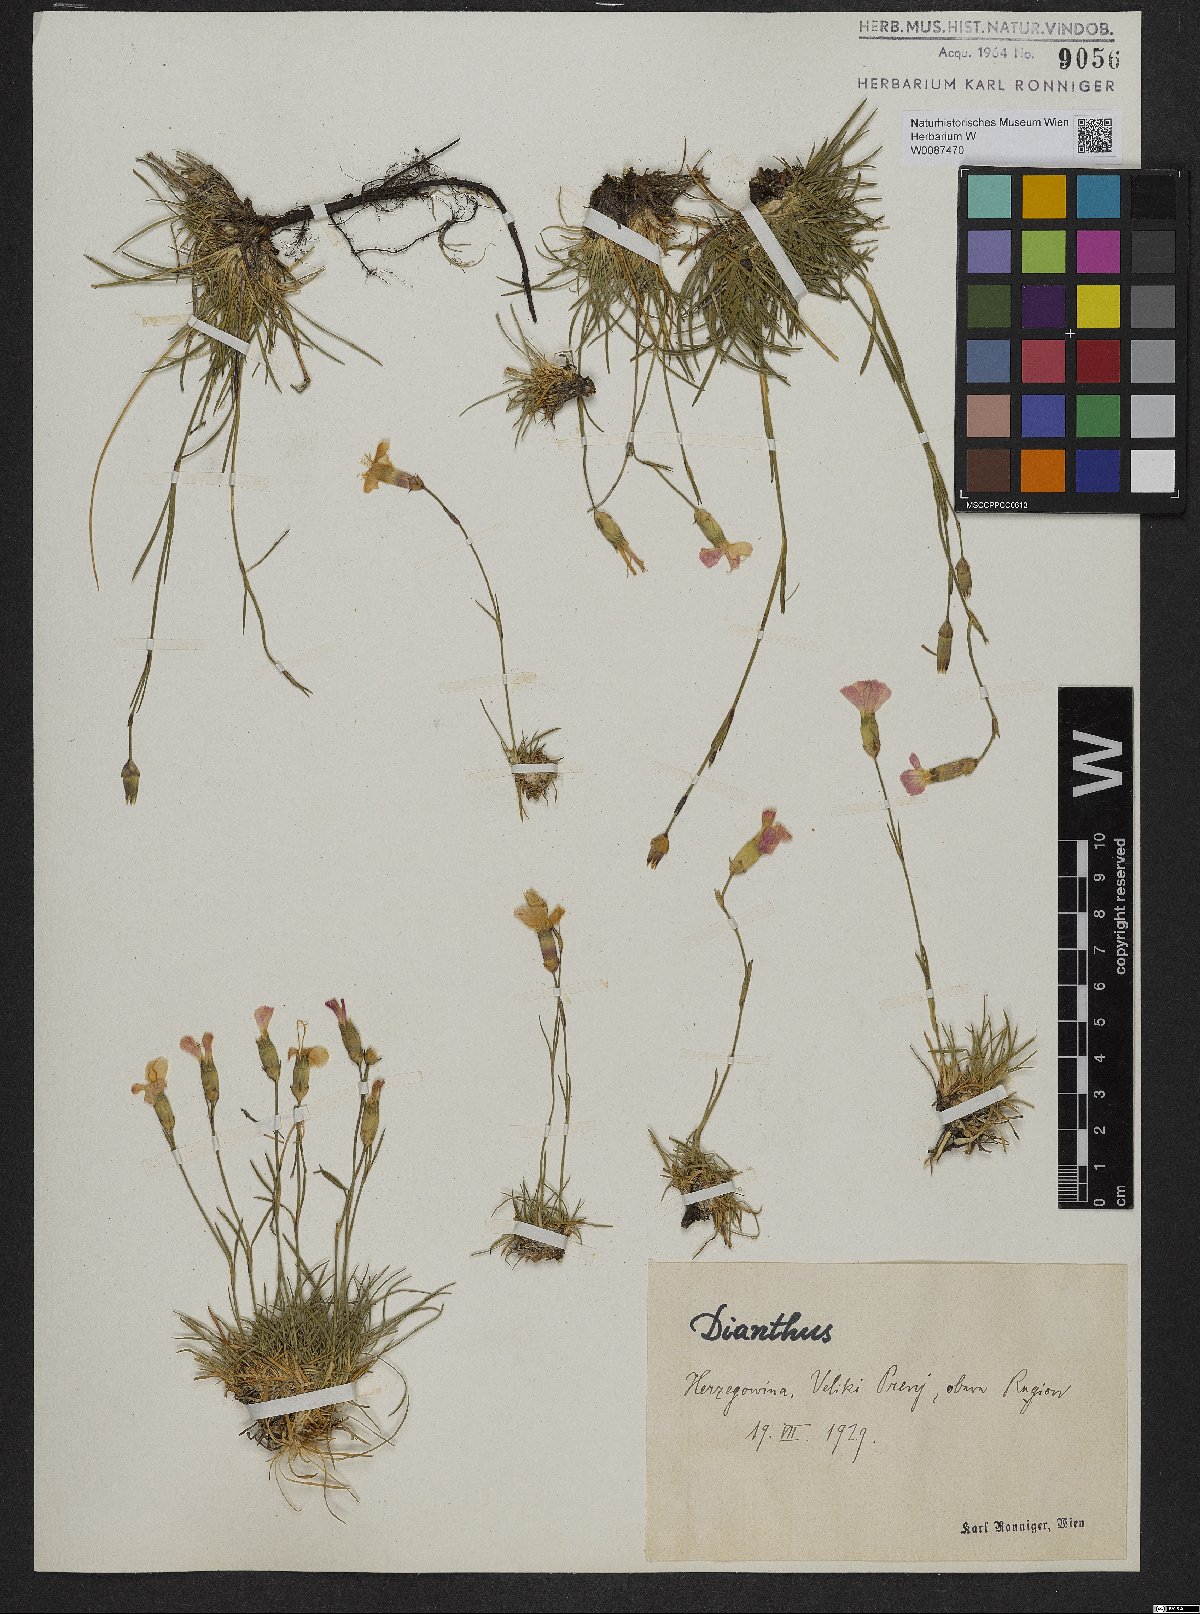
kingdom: Plantae
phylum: Tracheophyta
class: Magnoliopsida
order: Brassicales
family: Brassicaceae
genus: Cardamine
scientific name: Cardamine glauca
